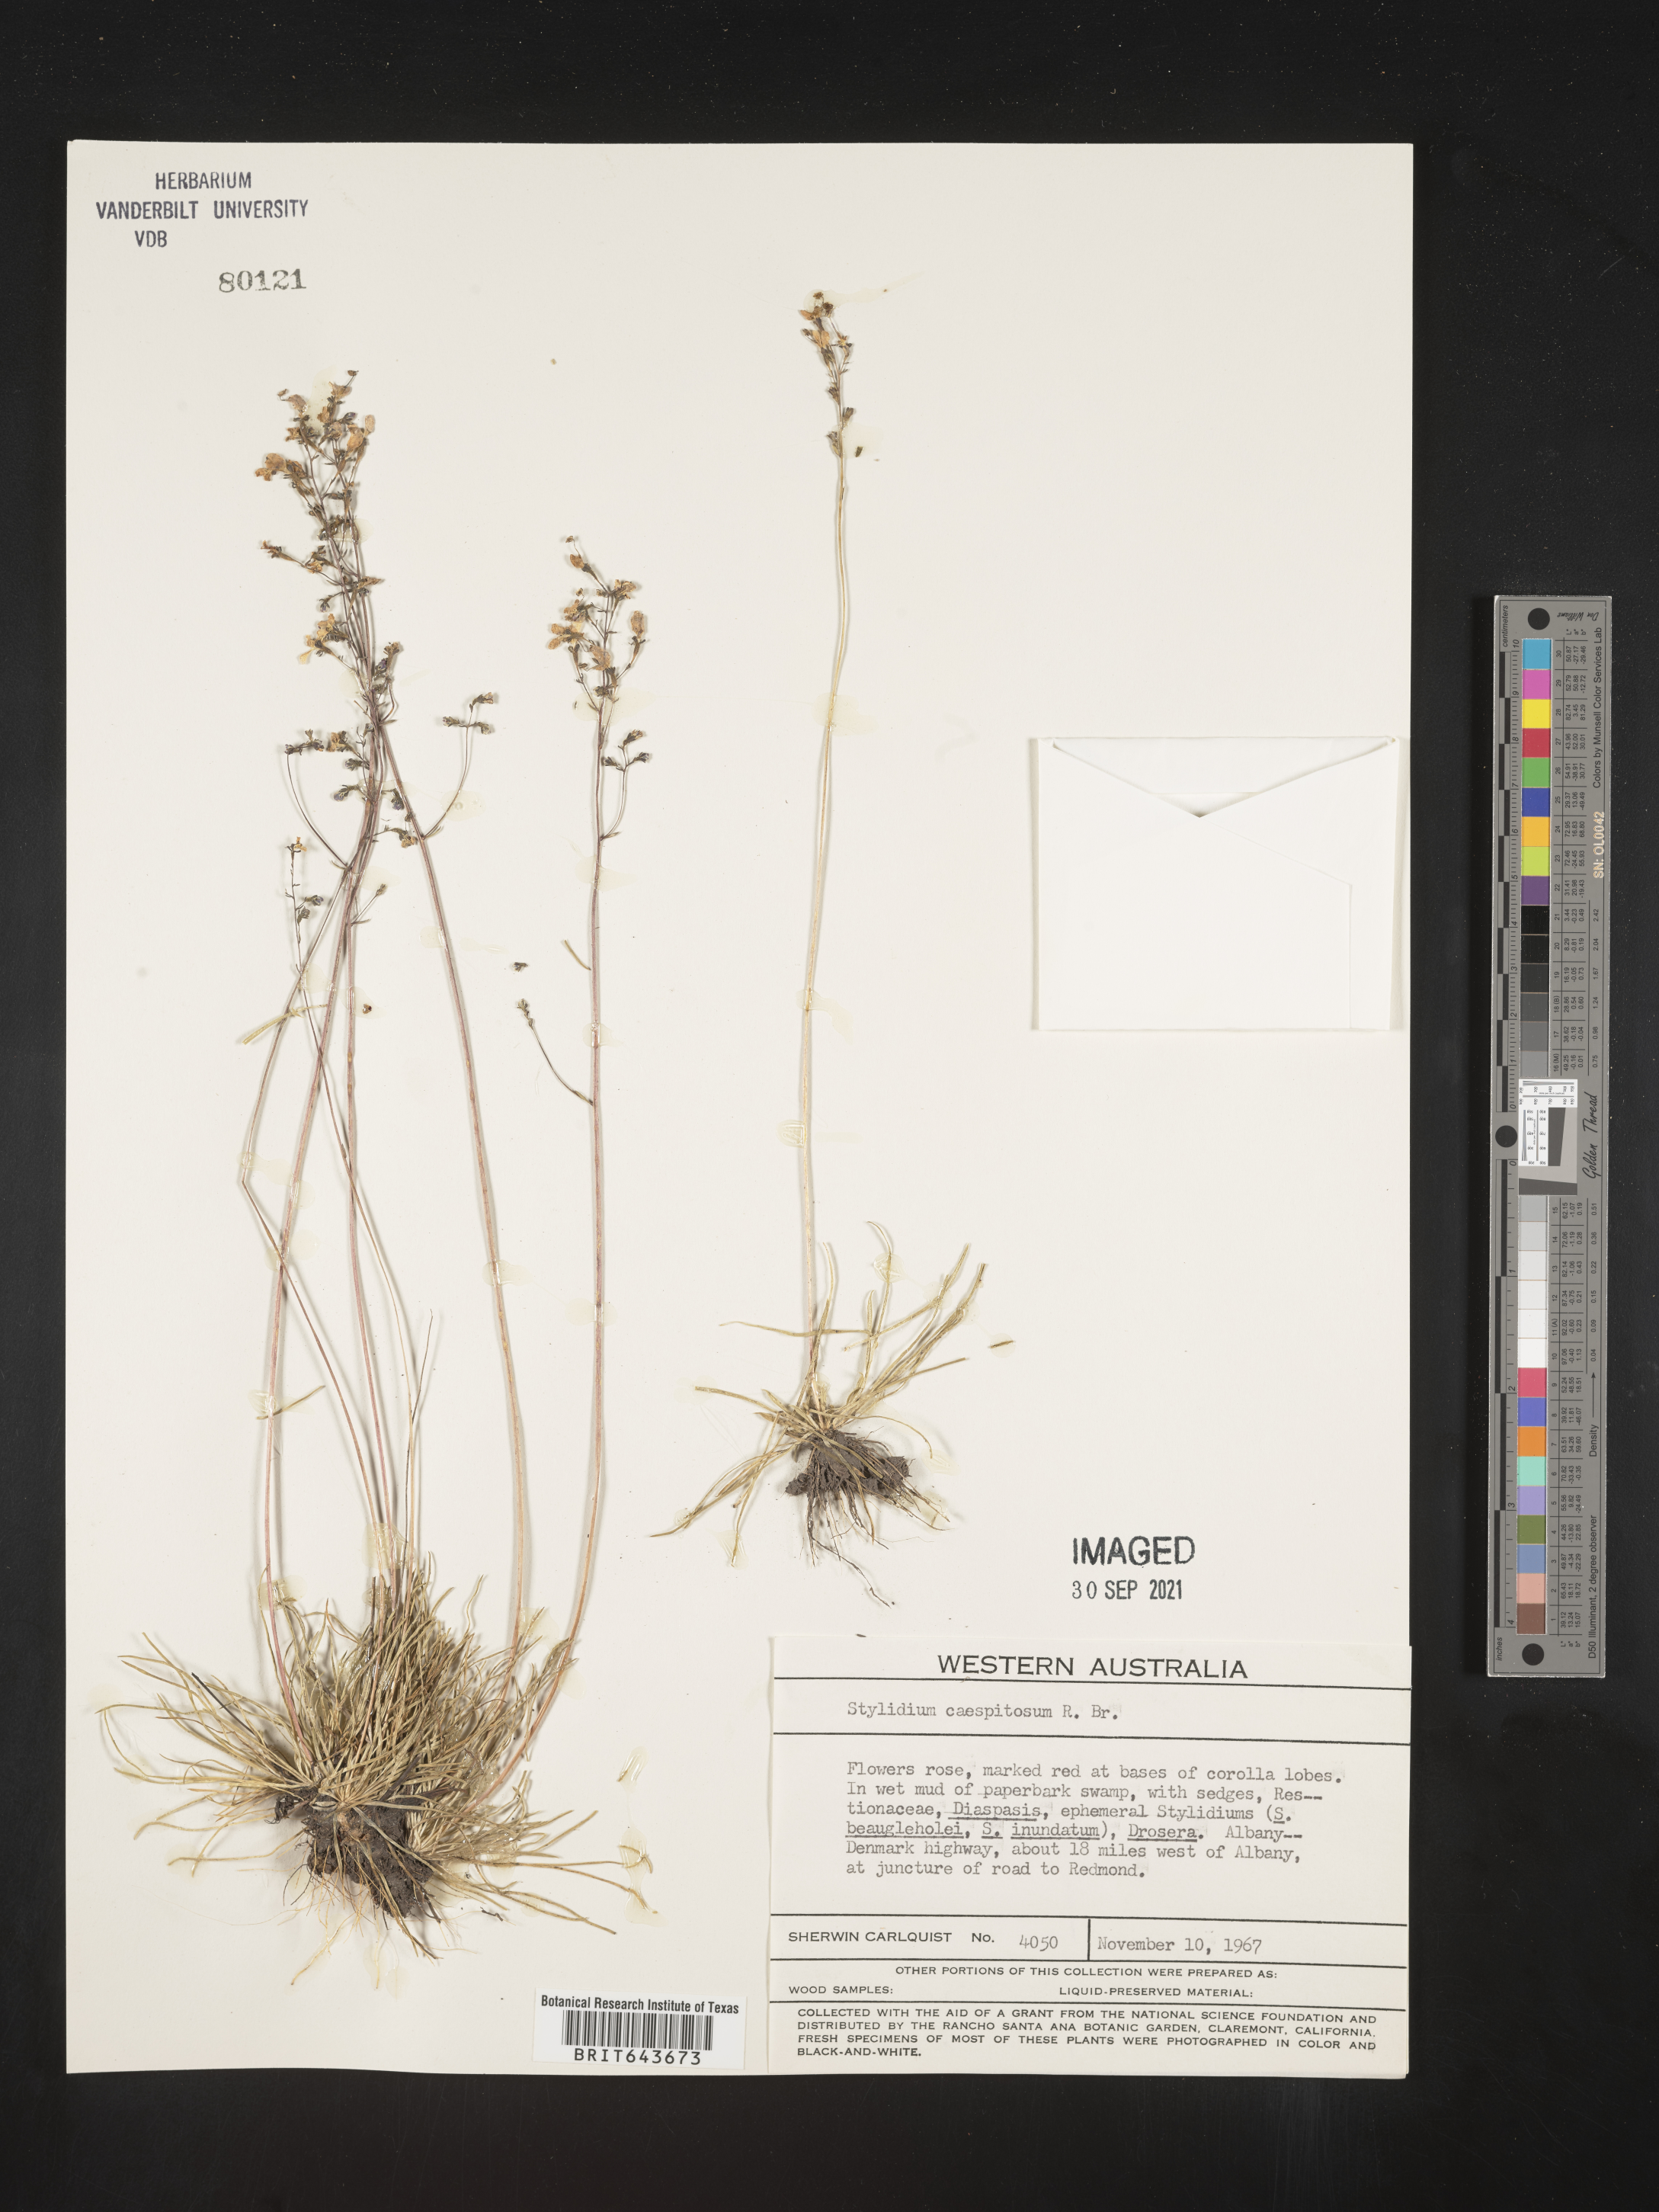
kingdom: Plantae
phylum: Tracheophyta
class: Magnoliopsida
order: Asterales
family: Stylidiaceae
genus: Stylidium
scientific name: Stylidium
